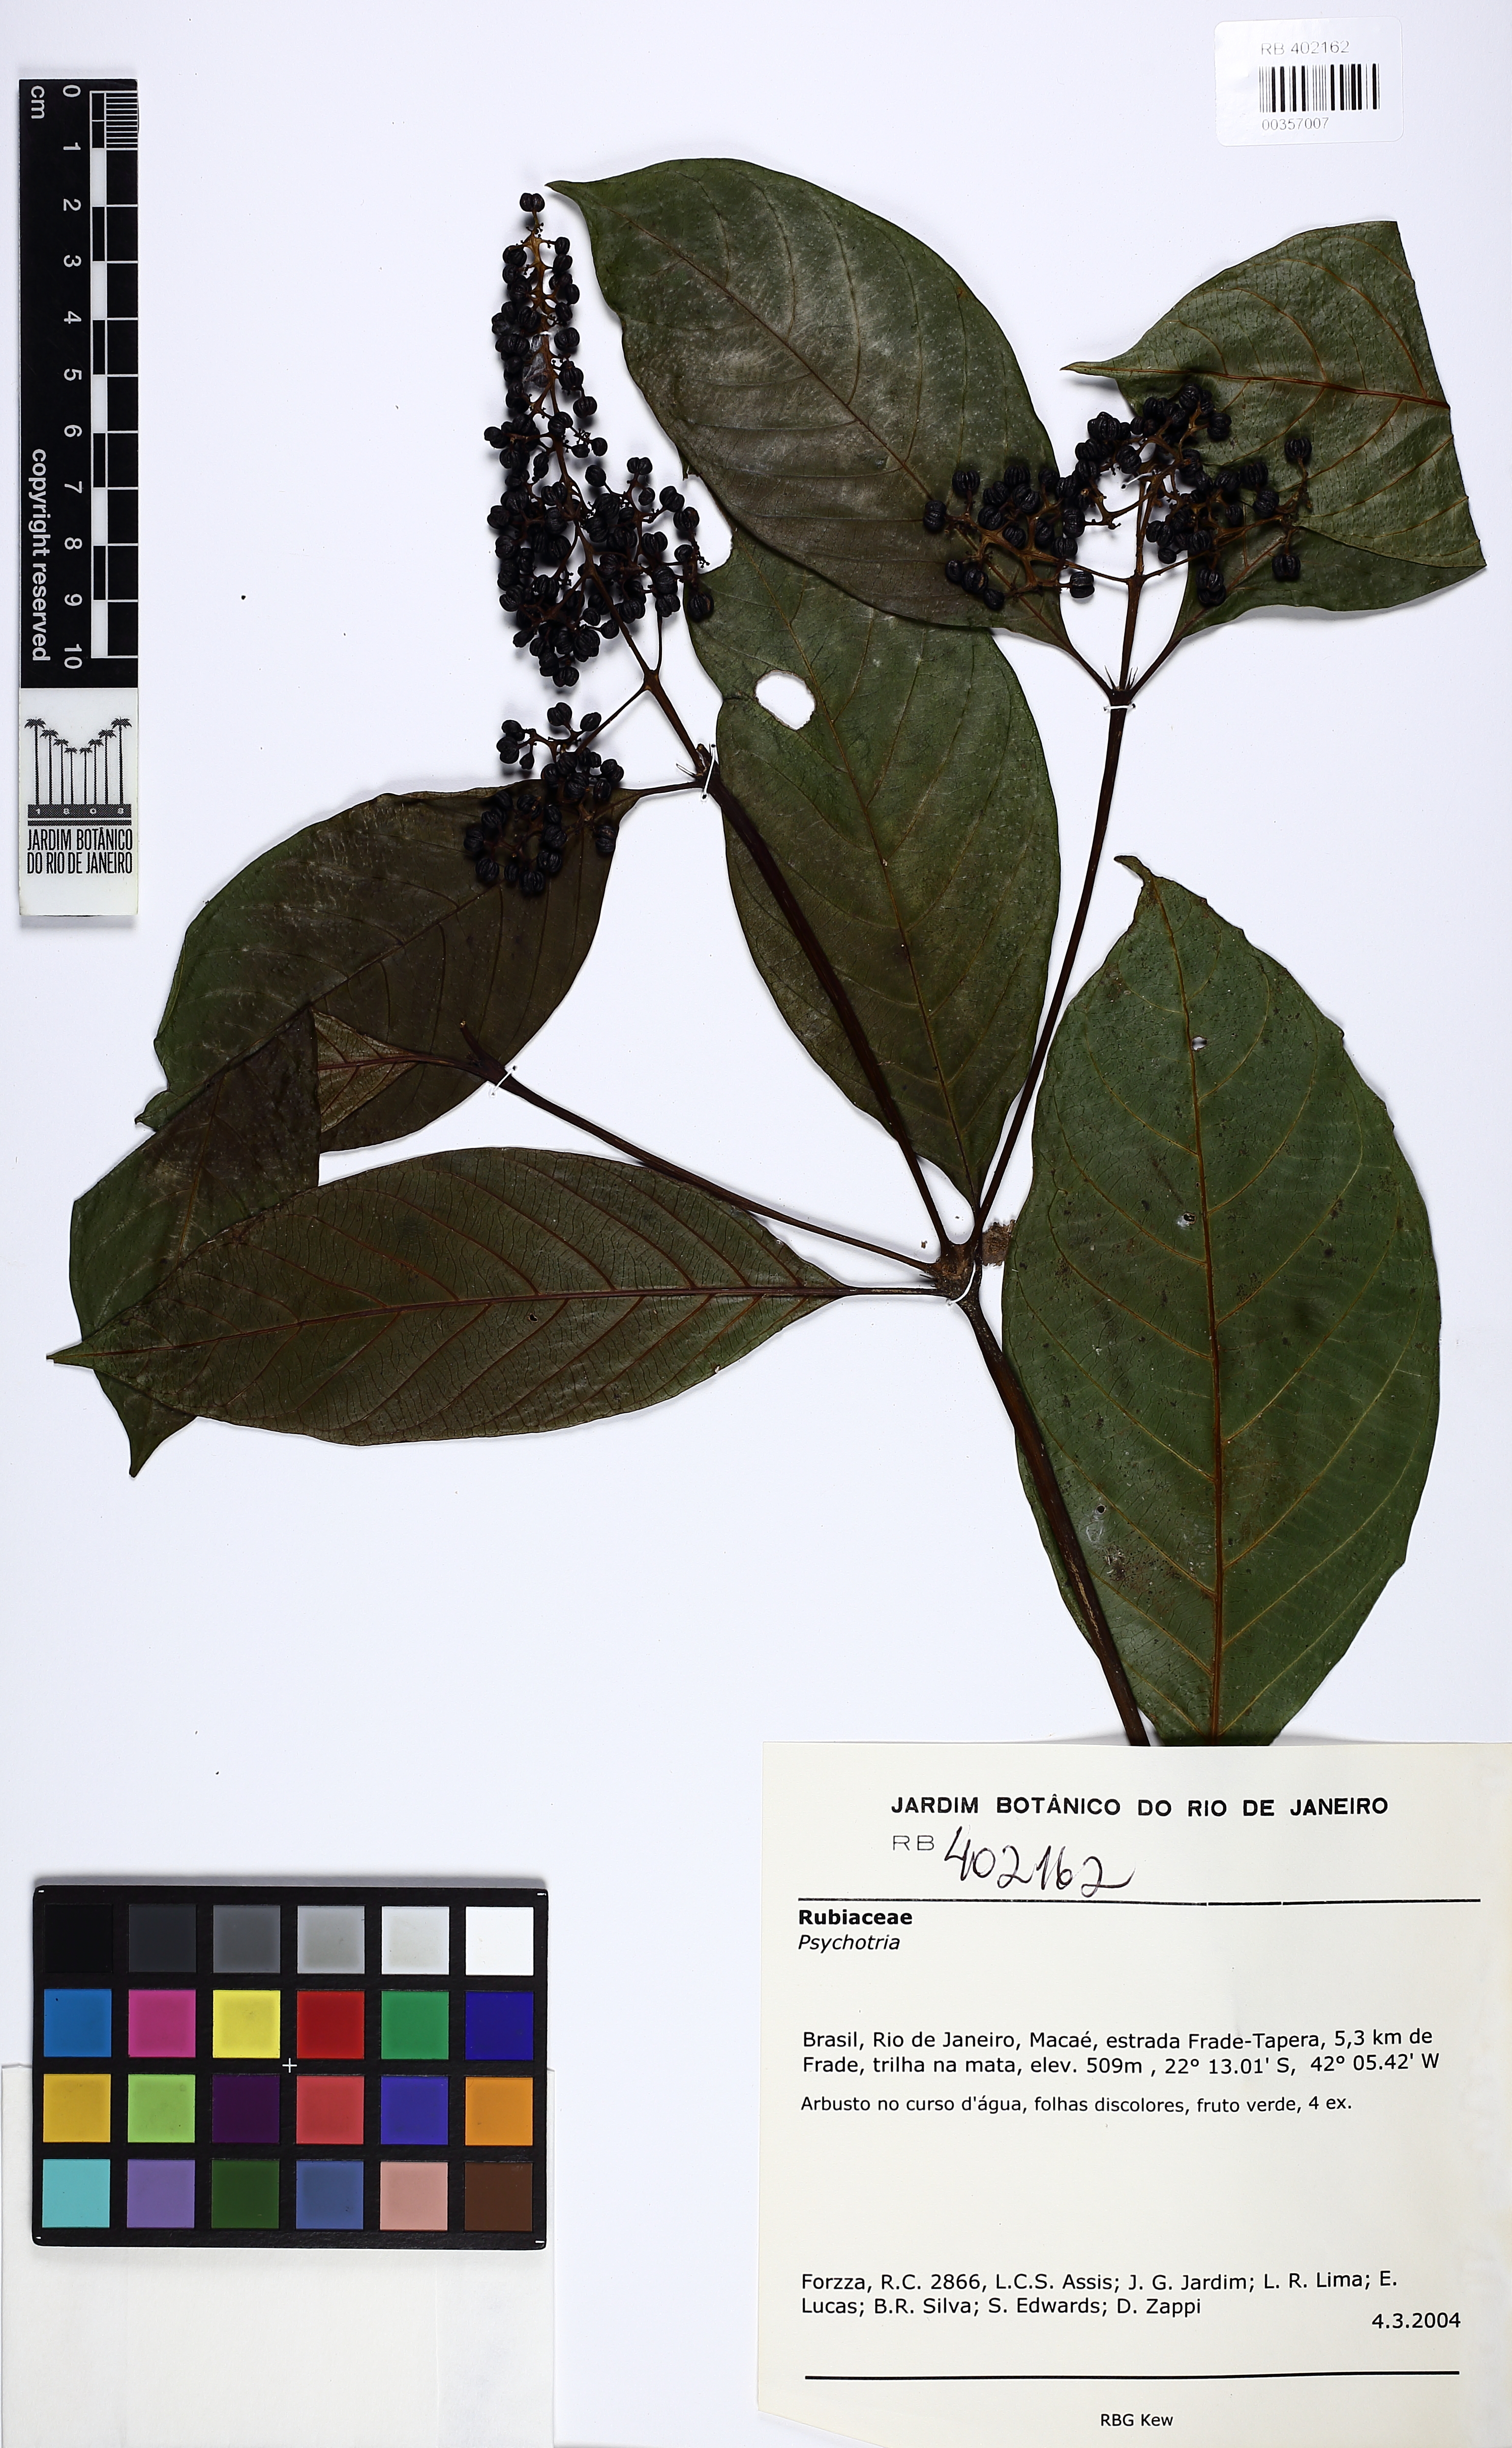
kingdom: Plantae
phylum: Tracheophyta
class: Magnoliopsida
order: Gentianales
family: Rubiaceae
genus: Palicourea
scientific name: Palicourea brevicollis
